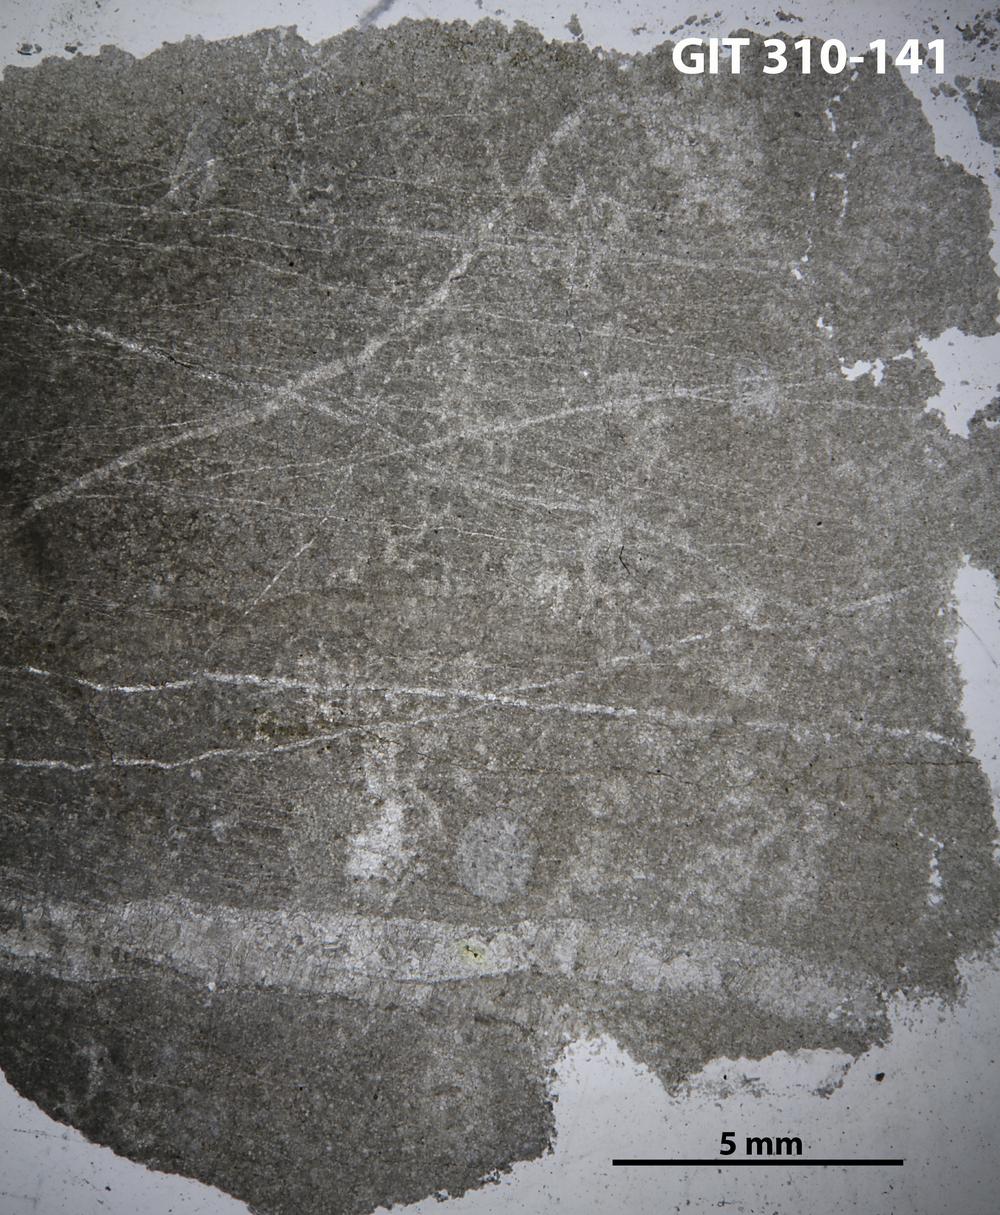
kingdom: Animalia
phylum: Porifera
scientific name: Porifera
